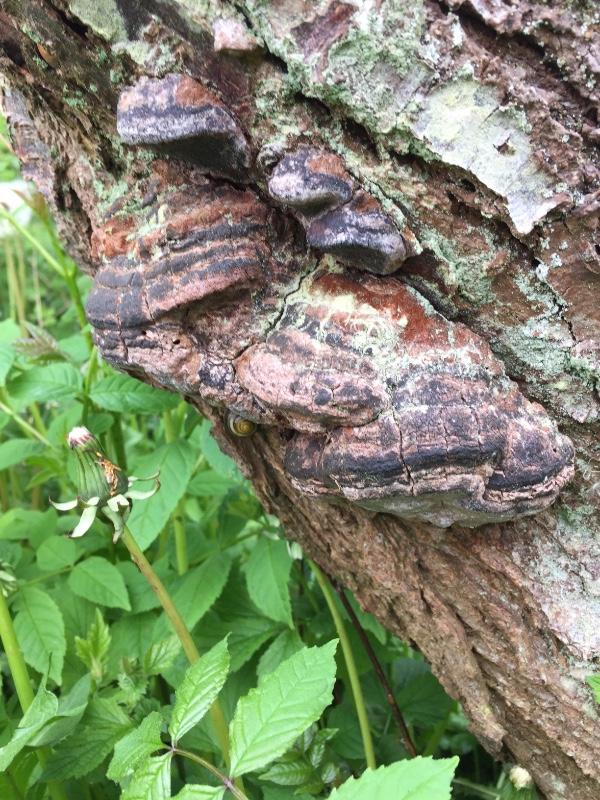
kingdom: Fungi
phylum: Basidiomycota
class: Agaricomycetes
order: Hymenochaetales
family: Hymenochaetaceae
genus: Phellinus
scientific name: Phellinus pomaceus
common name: blomme-ildporesvamp
